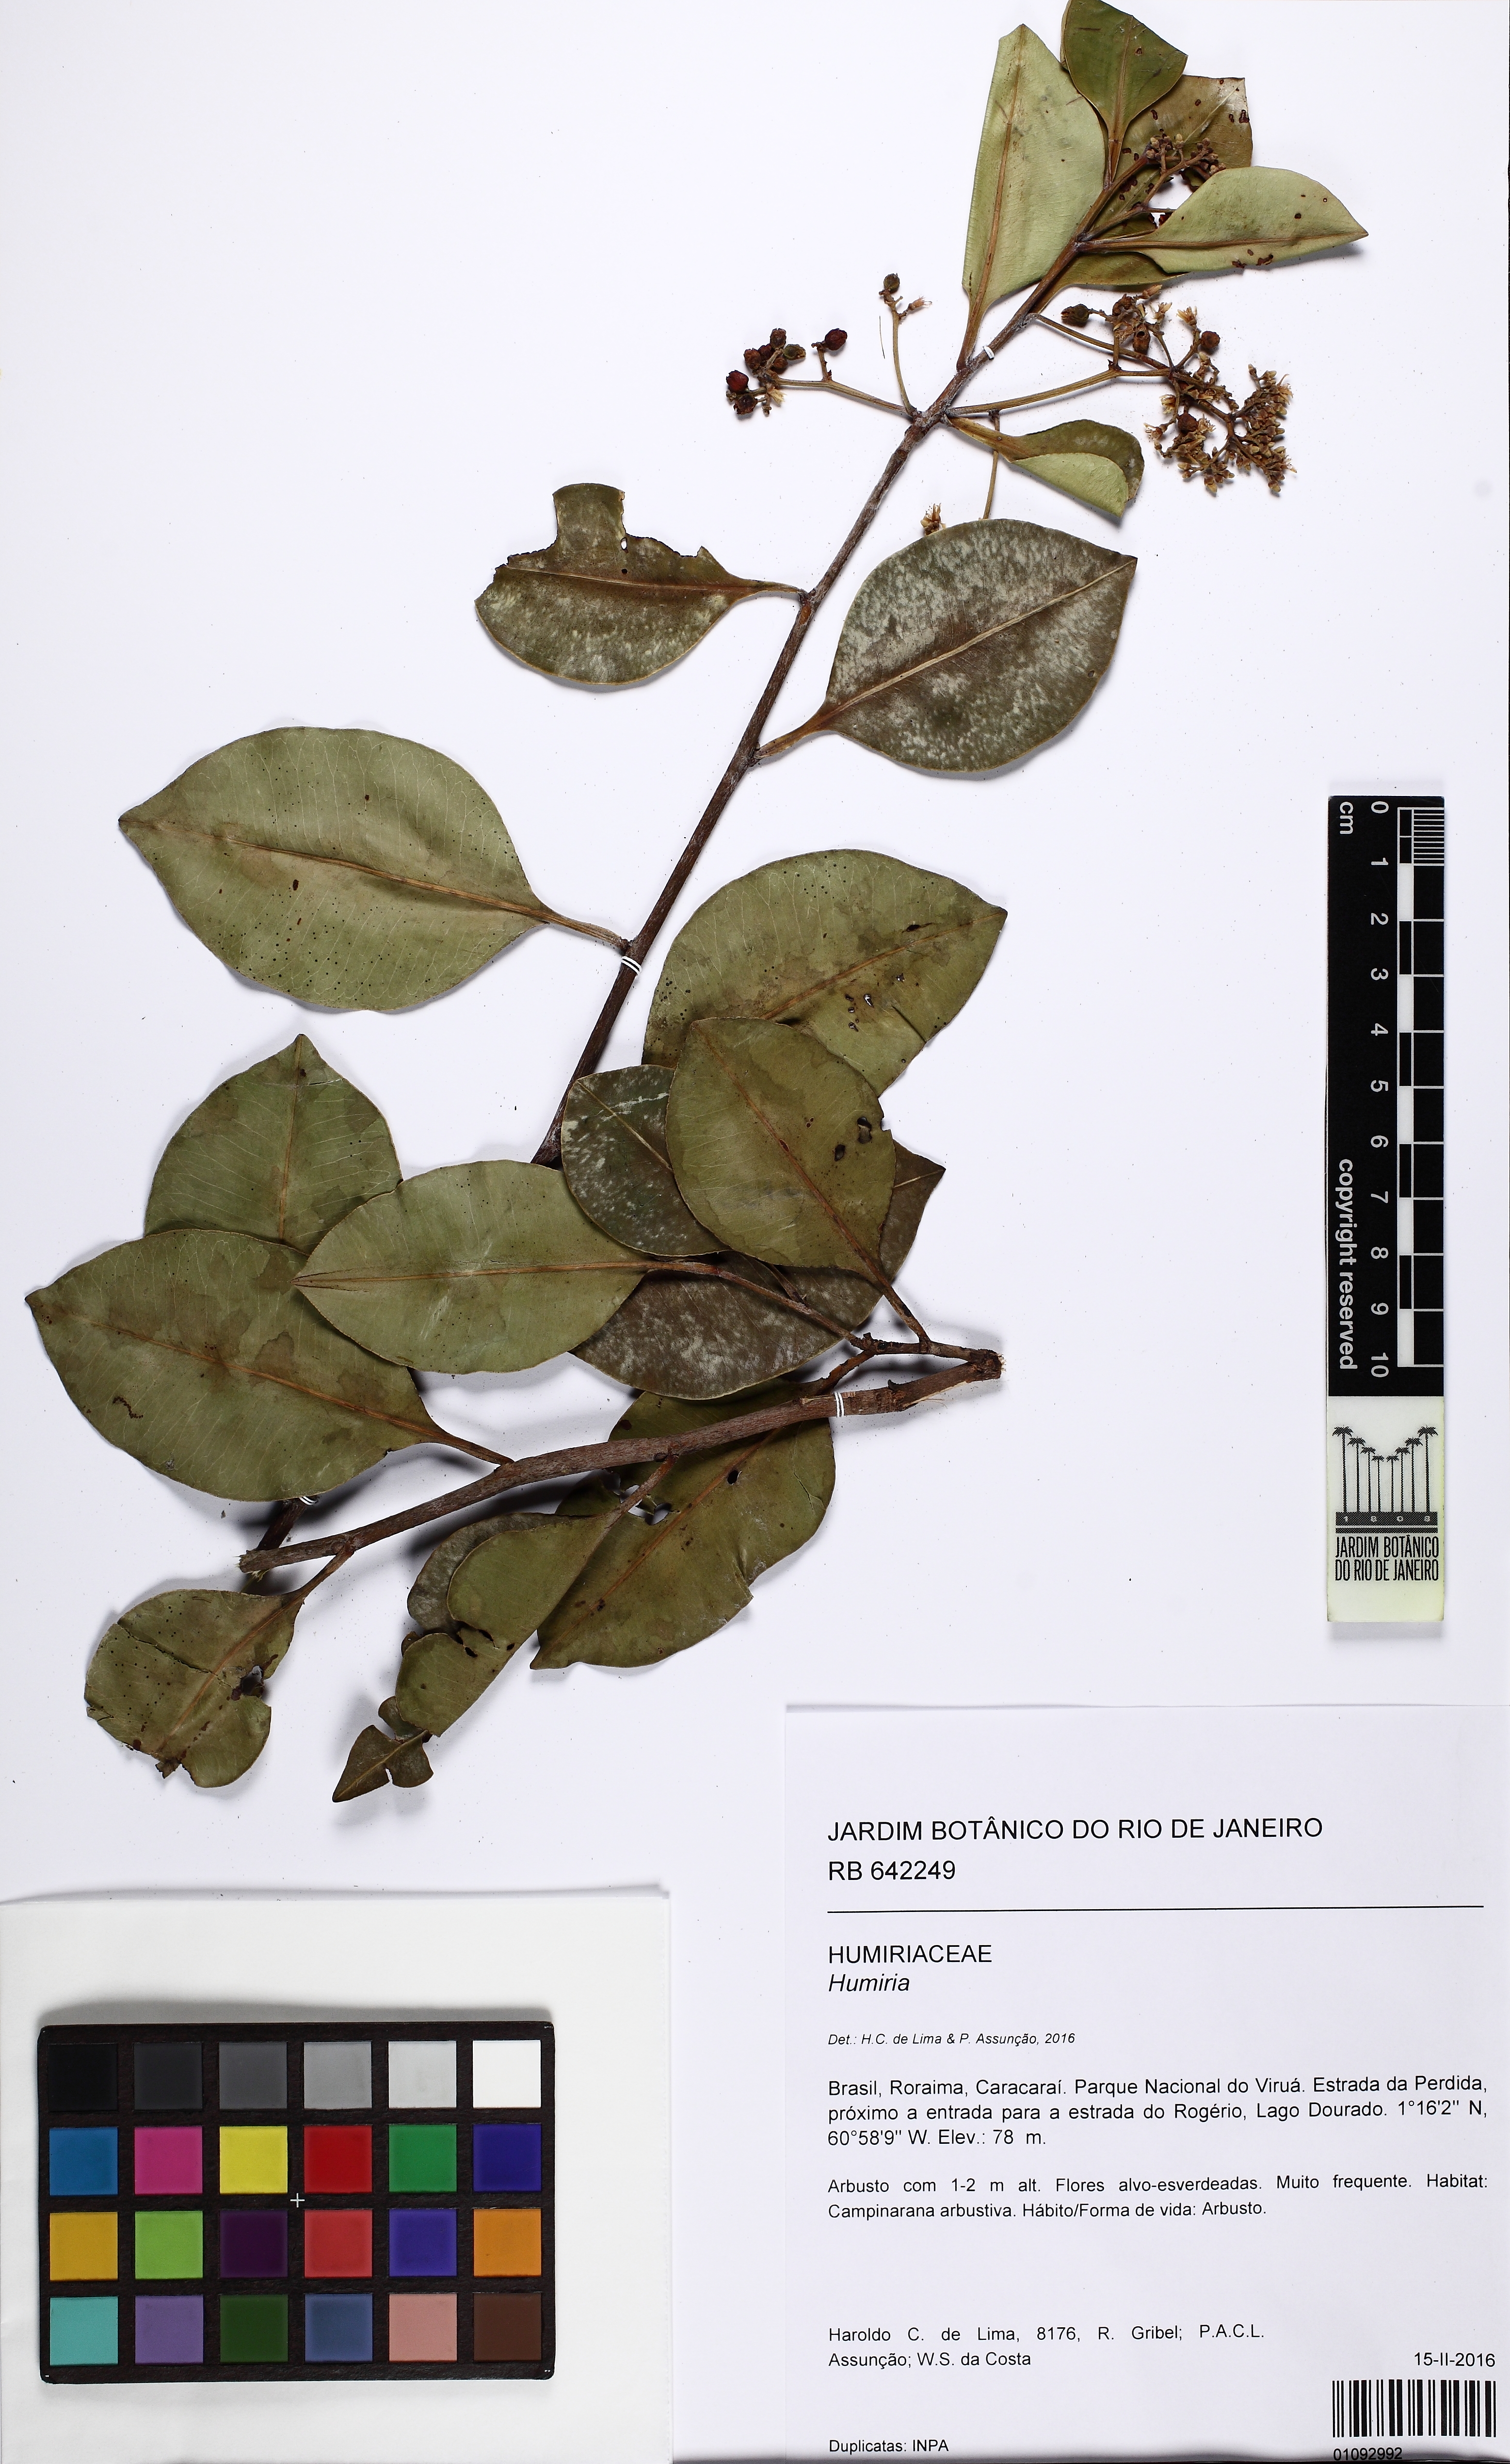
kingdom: Plantae
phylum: Tracheophyta
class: Magnoliopsida
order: Malpighiales
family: Humiriaceae
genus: Humiria
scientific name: Humiria balsamifera
